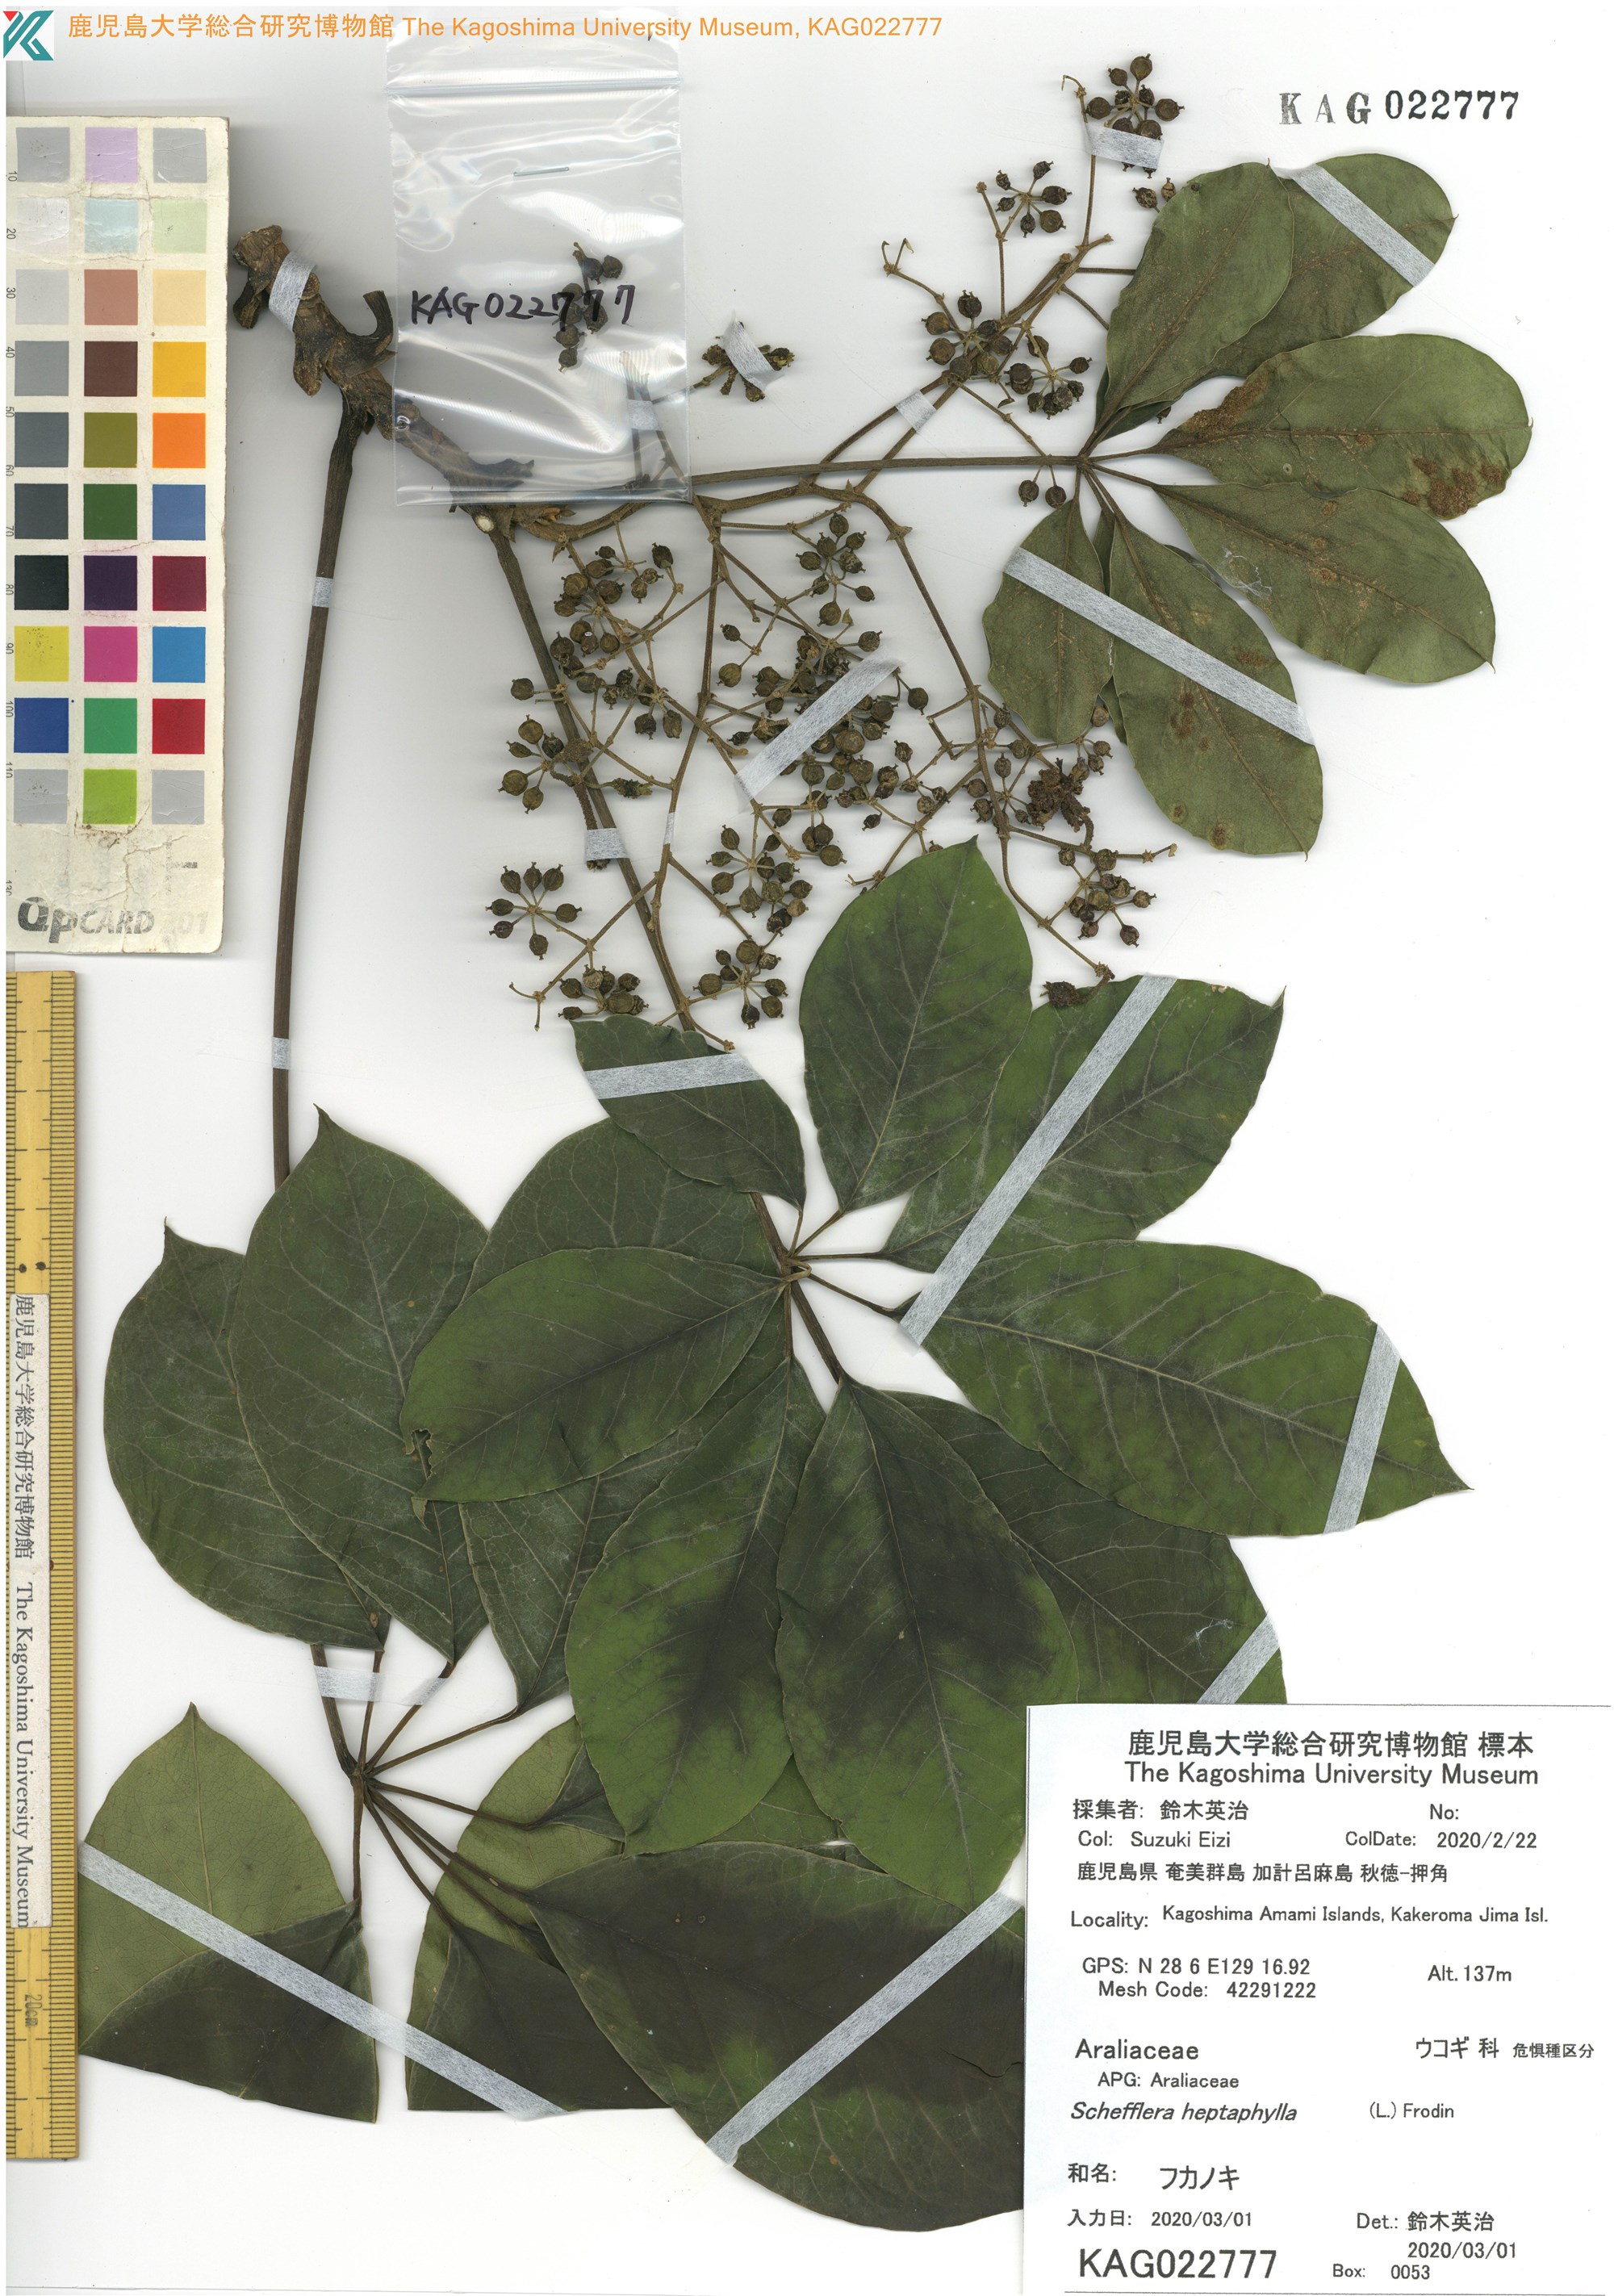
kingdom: Plantae
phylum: Tracheophyta
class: Magnoliopsida
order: Apiales
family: Araliaceae
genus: Heptapleurum
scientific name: Heptapleurum heptaphyllum
